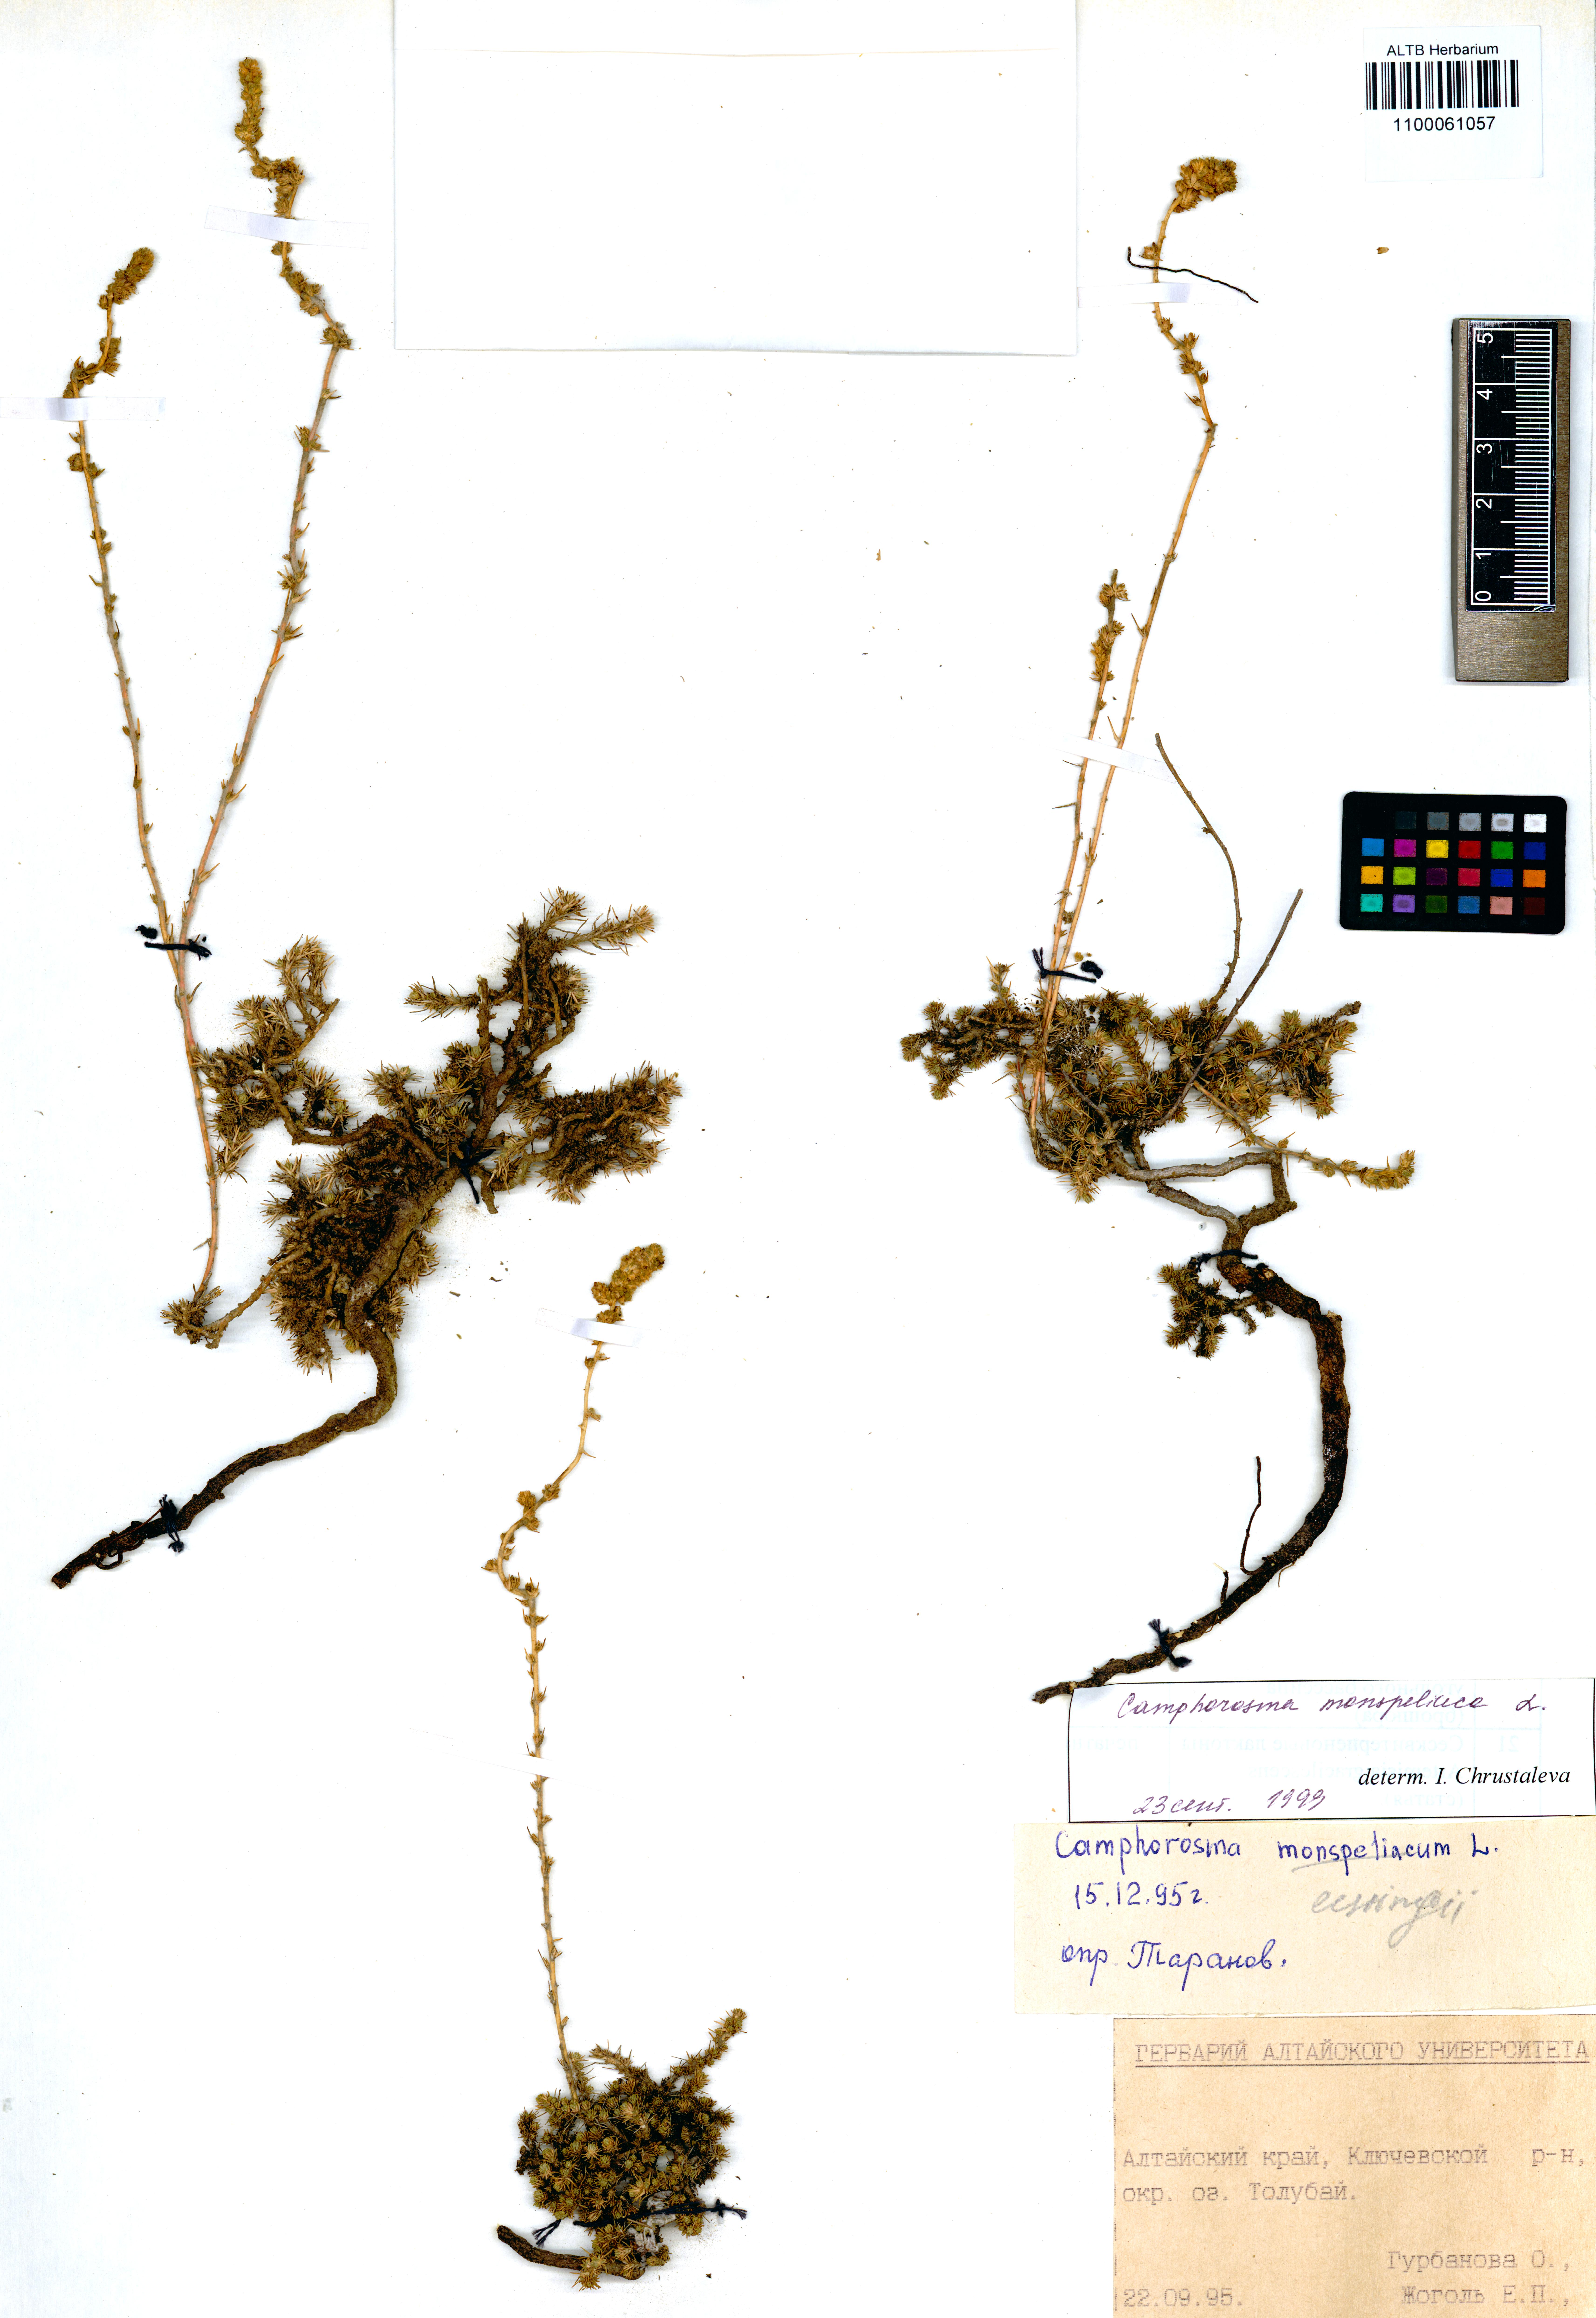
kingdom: Plantae
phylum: Tracheophyta
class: Magnoliopsida
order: Caryophyllales
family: Amaranthaceae
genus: Camphorosma
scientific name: Camphorosma monspeliaca
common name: Camphorfume
